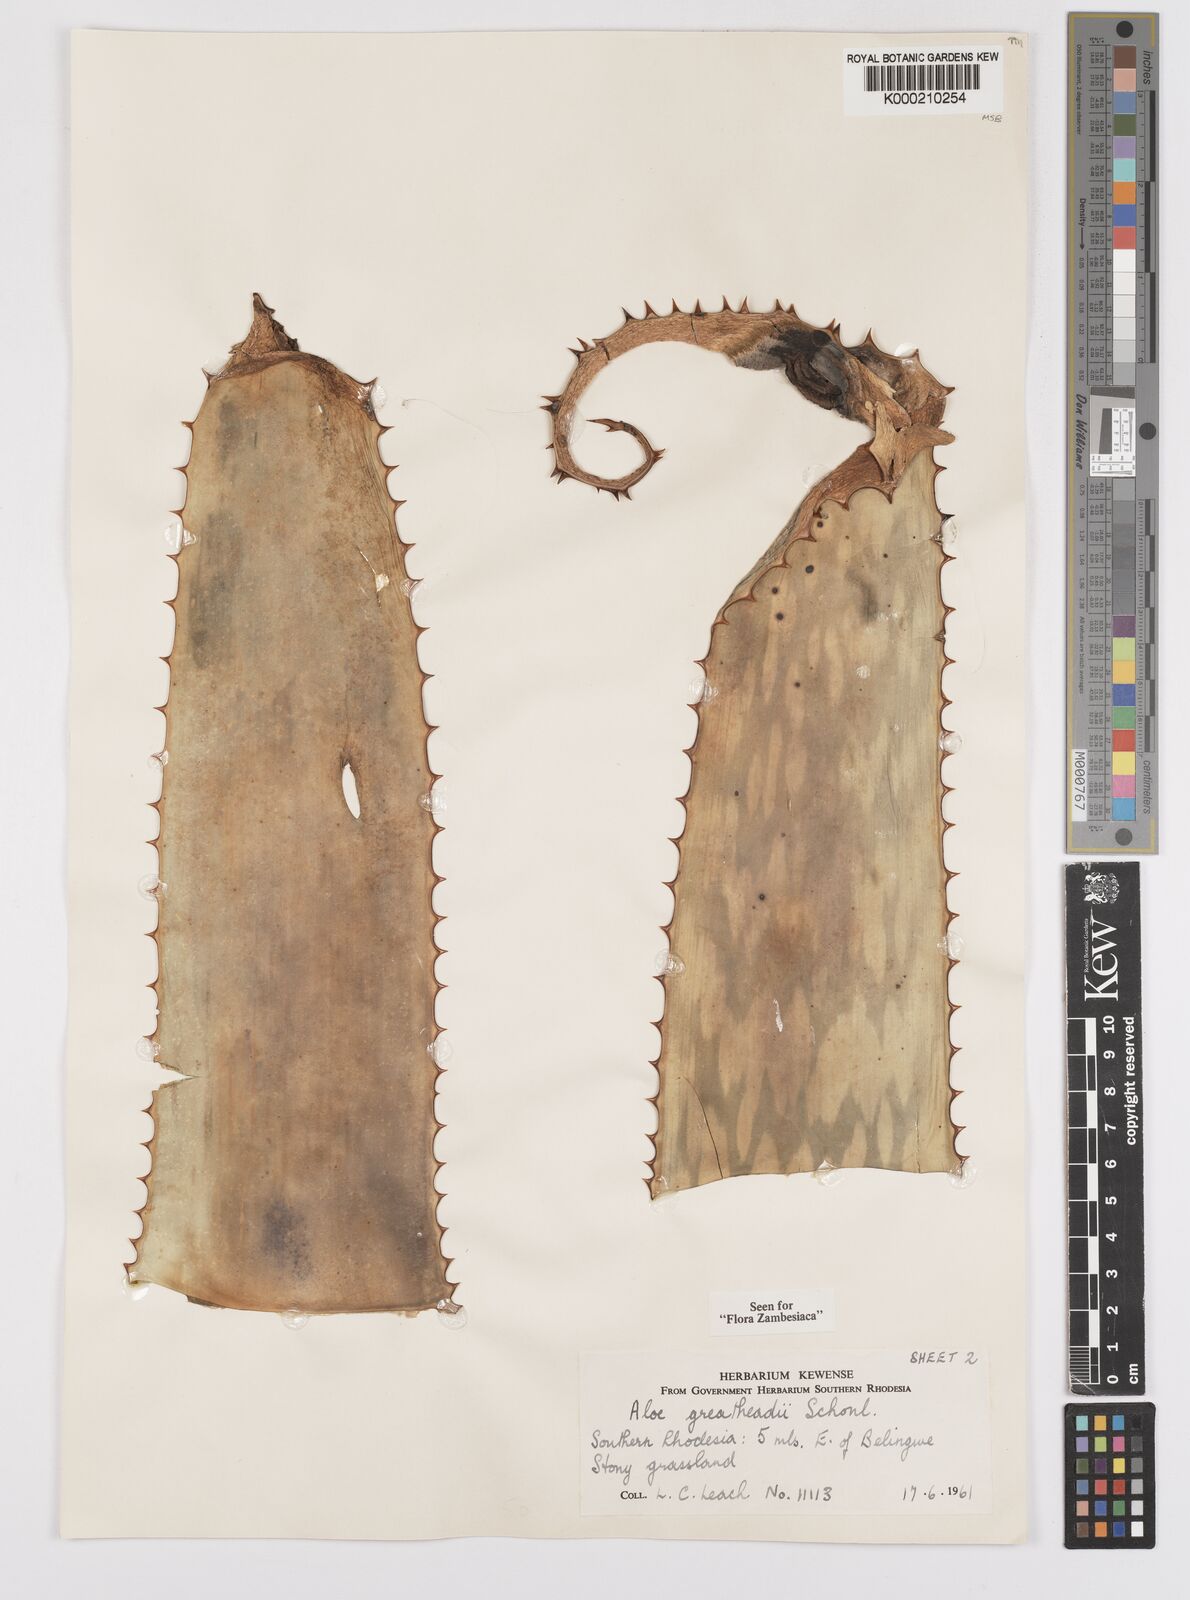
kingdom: Plantae
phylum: Tracheophyta
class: Liliopsida
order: Asparagales
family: Asphodelaceae
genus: Aloe
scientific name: Aloe greatheadii
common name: Greathead's aloe
